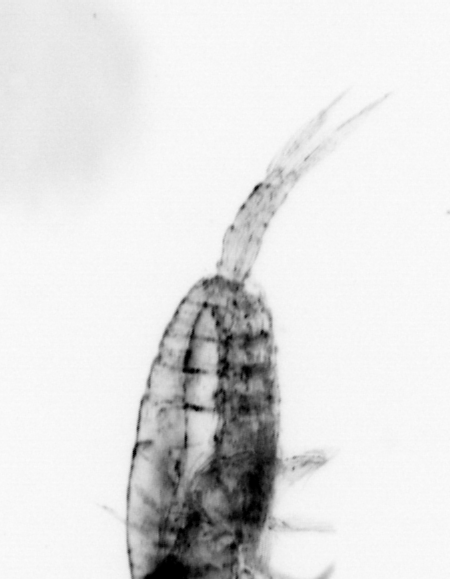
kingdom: Animalia
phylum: Arthropoda
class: Copepoda
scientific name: Copepoda
